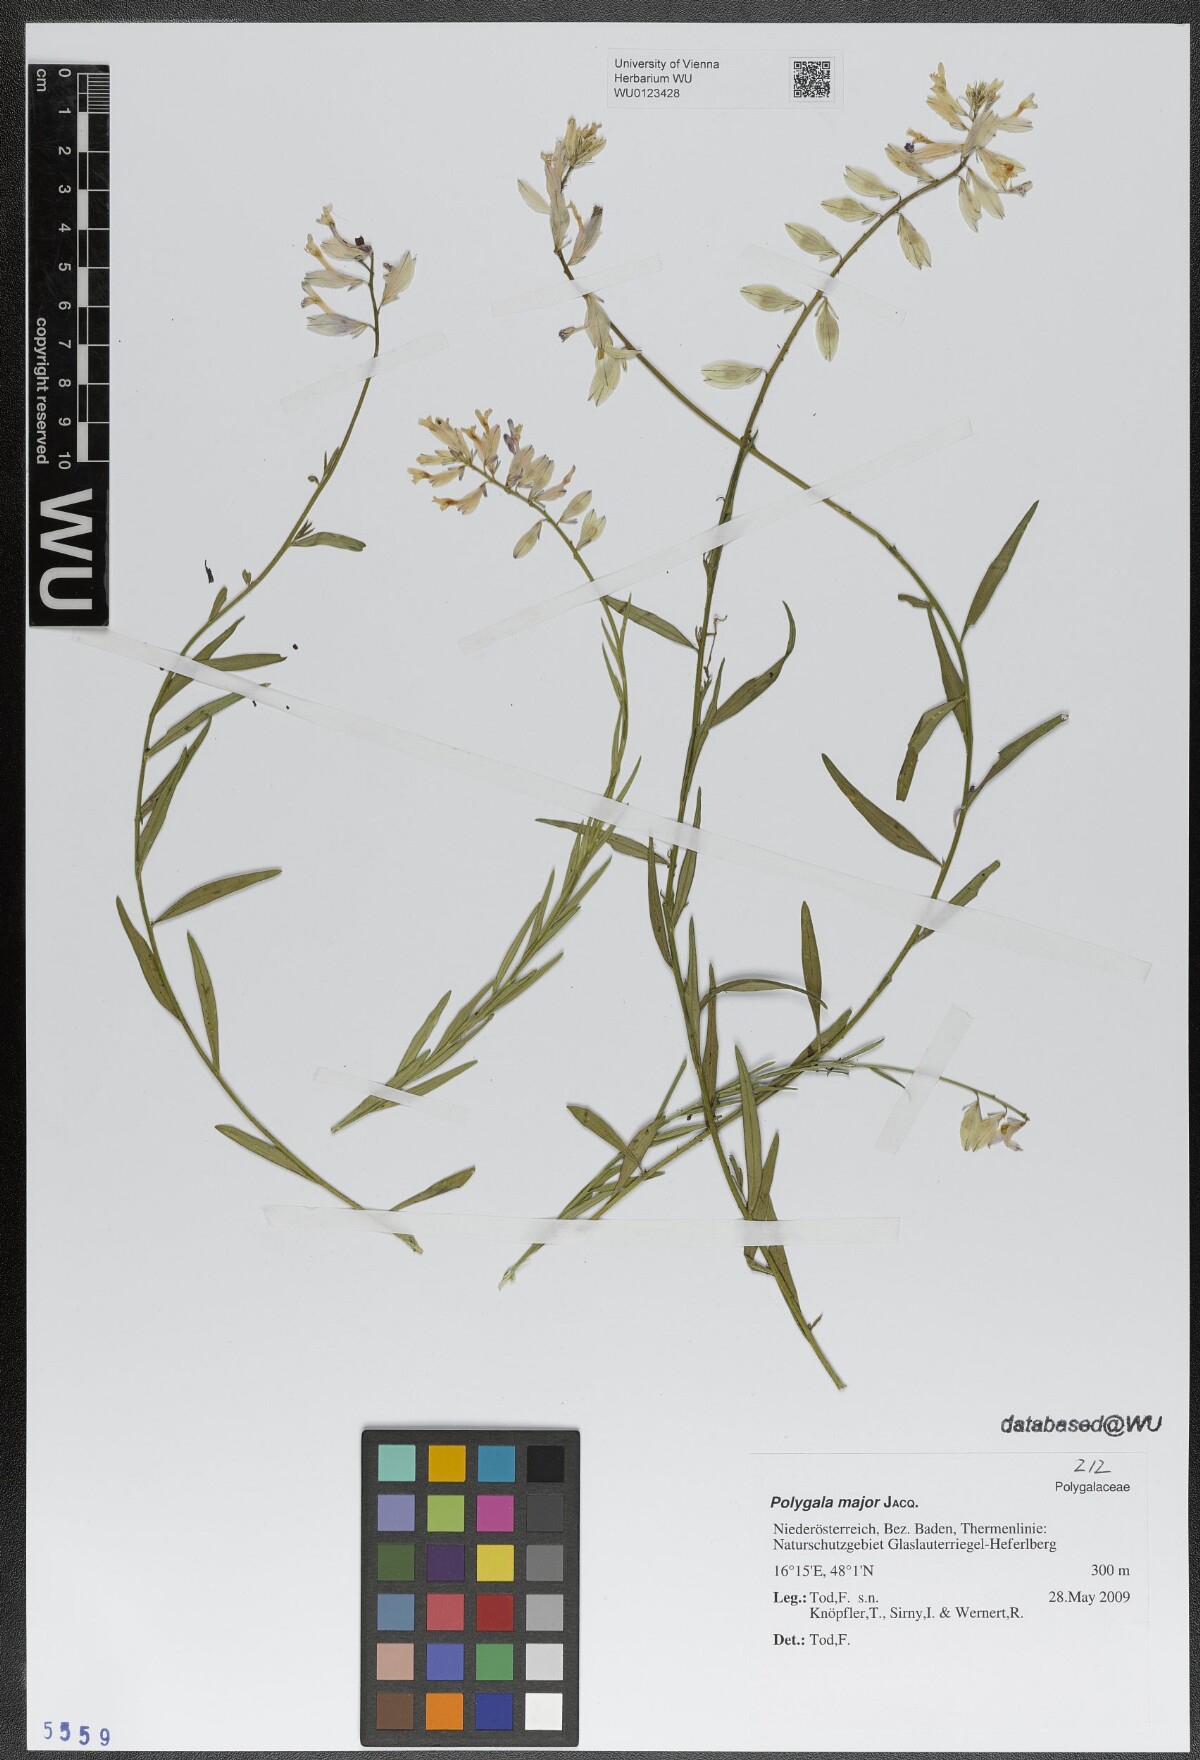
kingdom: Plantae
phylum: Tracheophyta
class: Magnoliopsida
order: Fabales
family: Polygalaceae
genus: Polygala
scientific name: Polygala major
